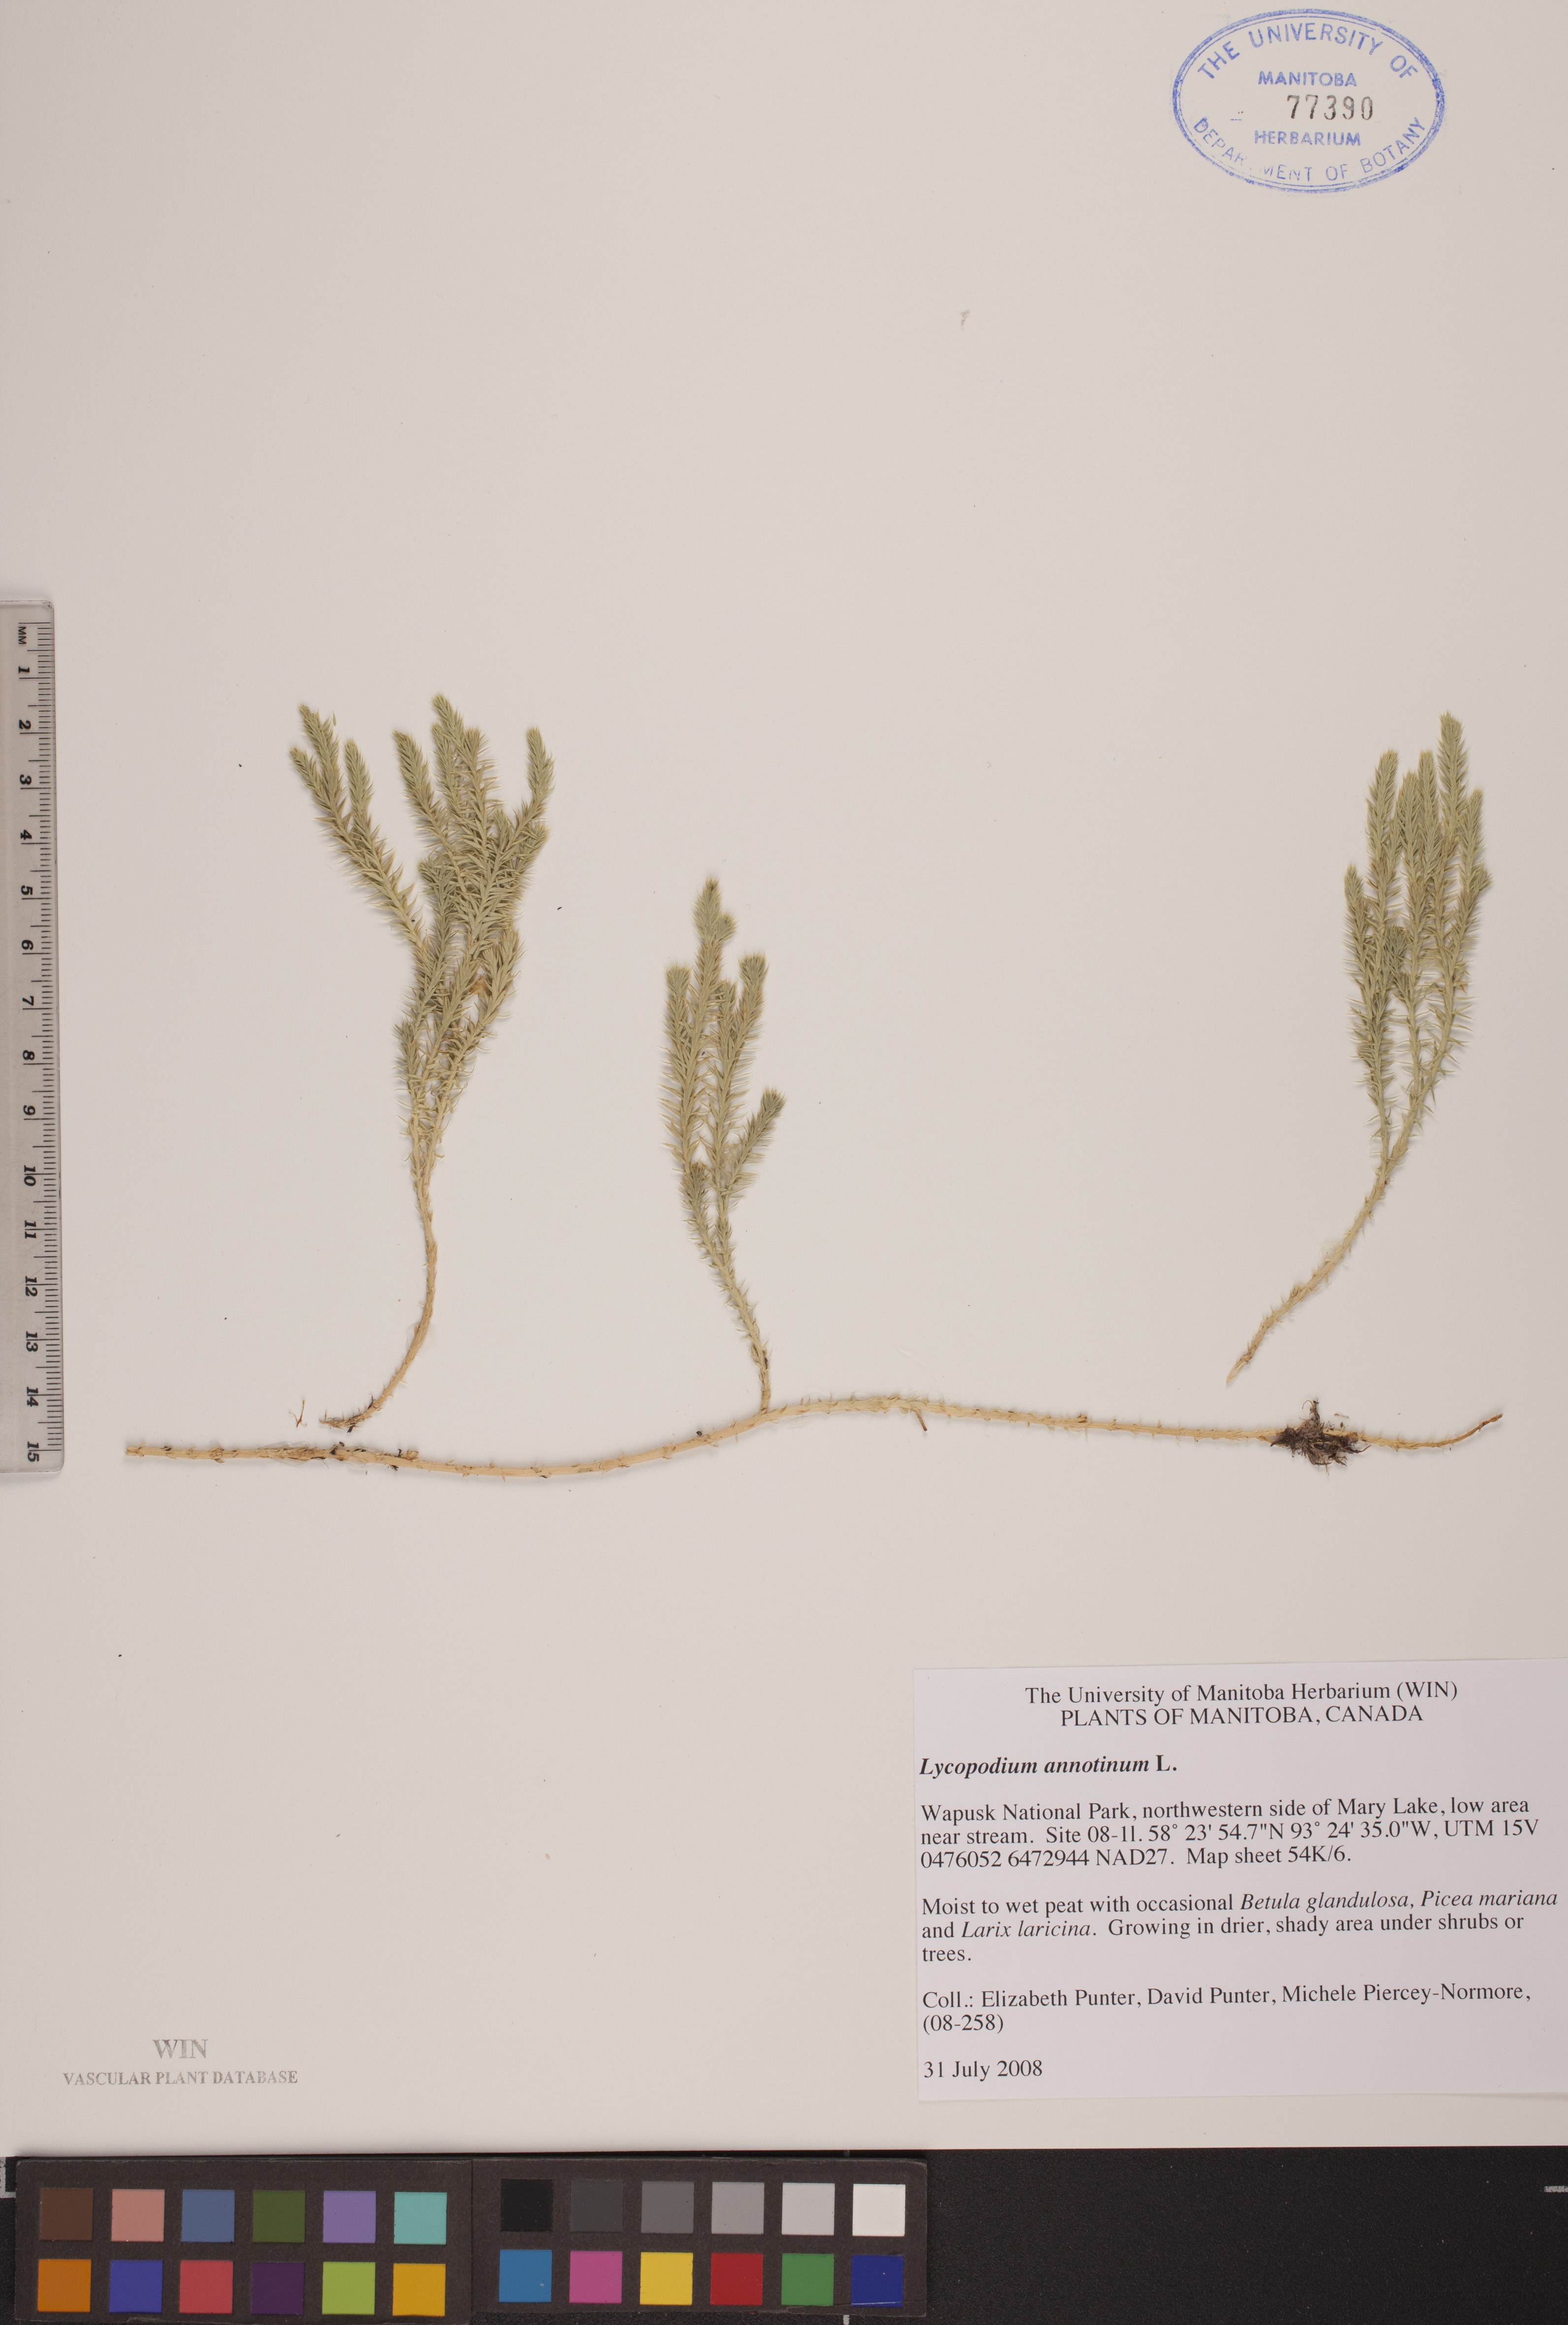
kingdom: Plantae
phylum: Tracheophyta
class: Lycopodiopsida
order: Lycopodiales
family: Lycopodiaceae
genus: Spinulum
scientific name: Spinulum annotinum
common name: Interrupted club-moss
